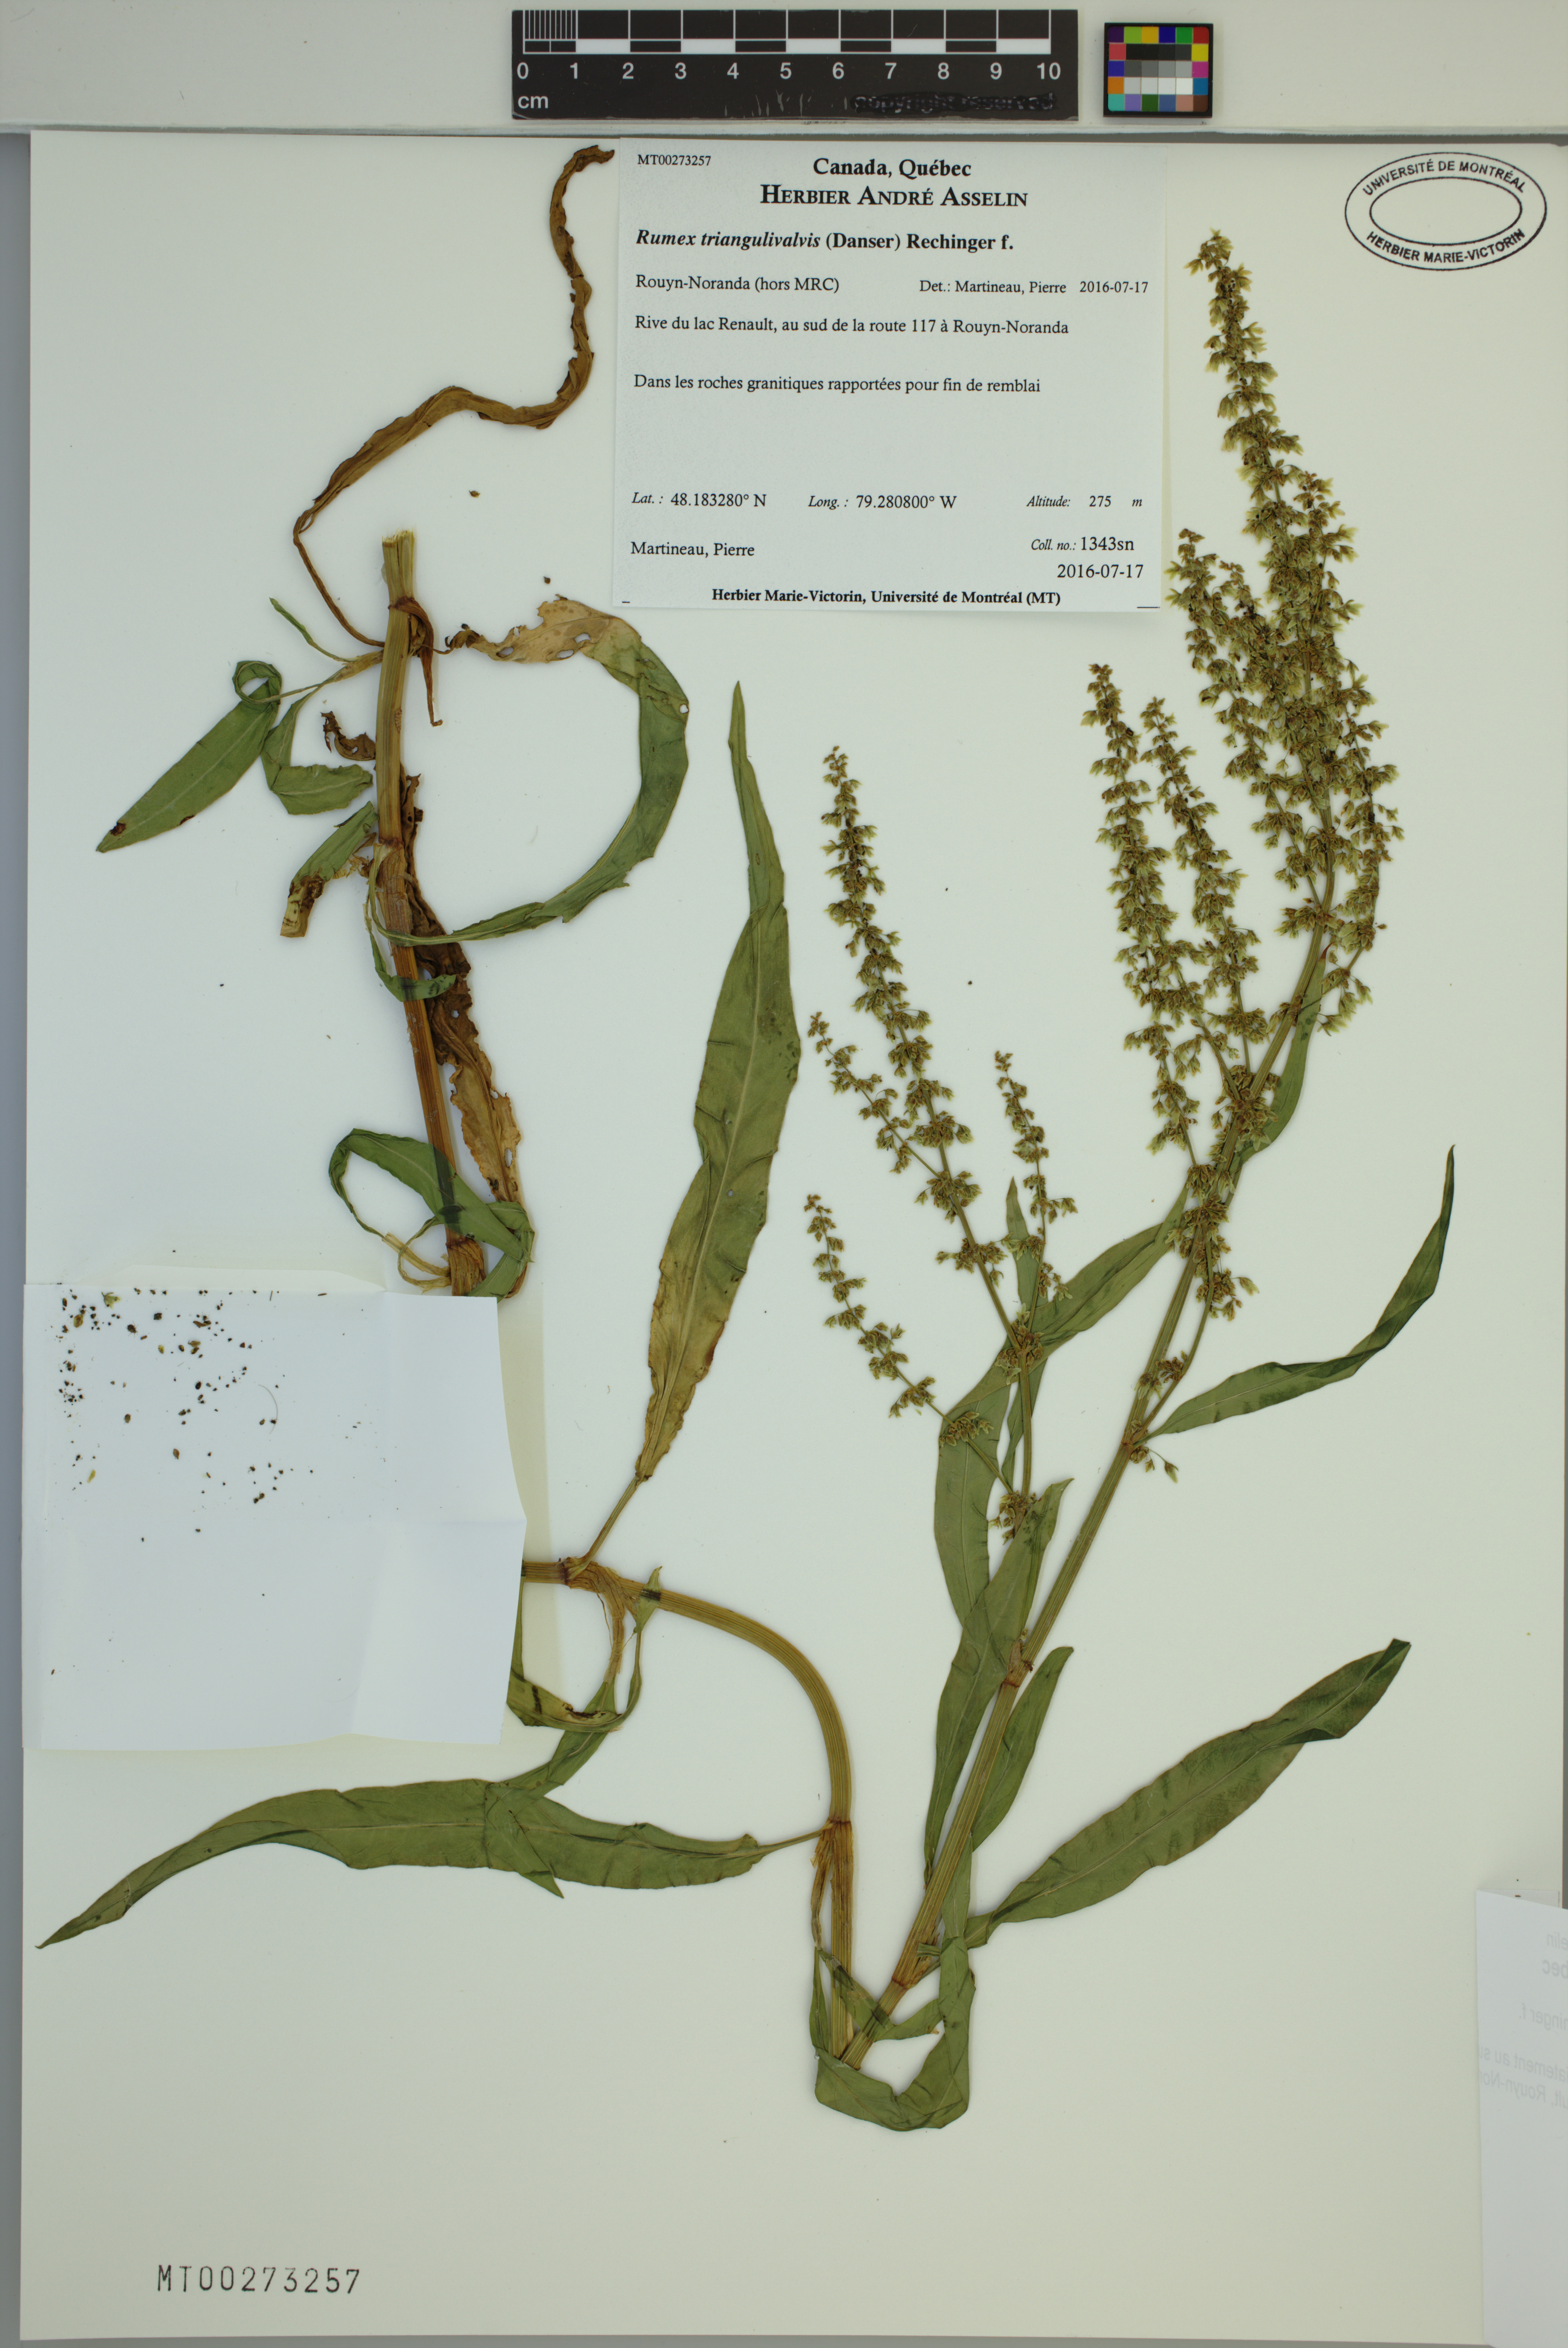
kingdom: Plantae
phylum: Tracheophyta
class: Magnoliopsida
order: Caryophyllales
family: Polygonaceae
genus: Rumex
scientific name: Rumex triangulivalvis
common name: Triangular-valve dock
